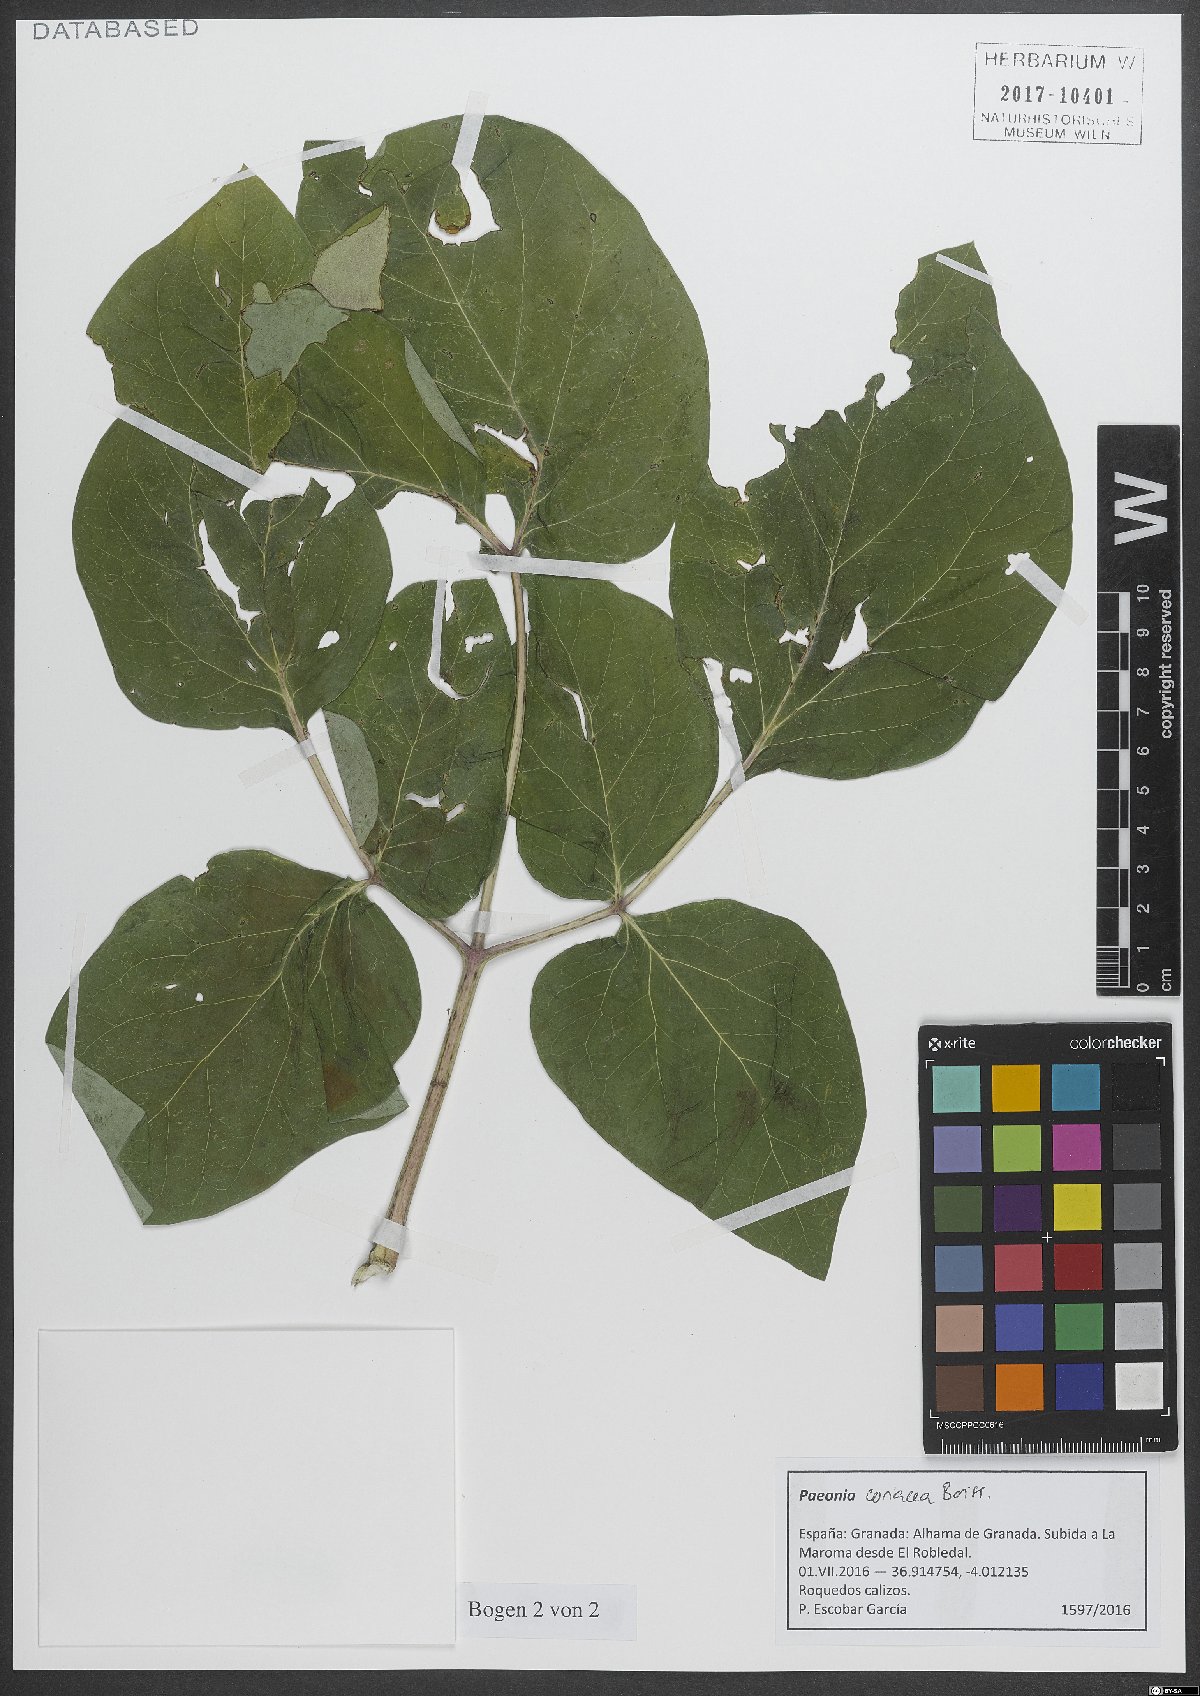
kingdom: Plantae
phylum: Tracheophyta
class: Magnoliopsida
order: Saxifragales
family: Paeoniaceae
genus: Paeonia
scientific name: Paeonia coriacea
